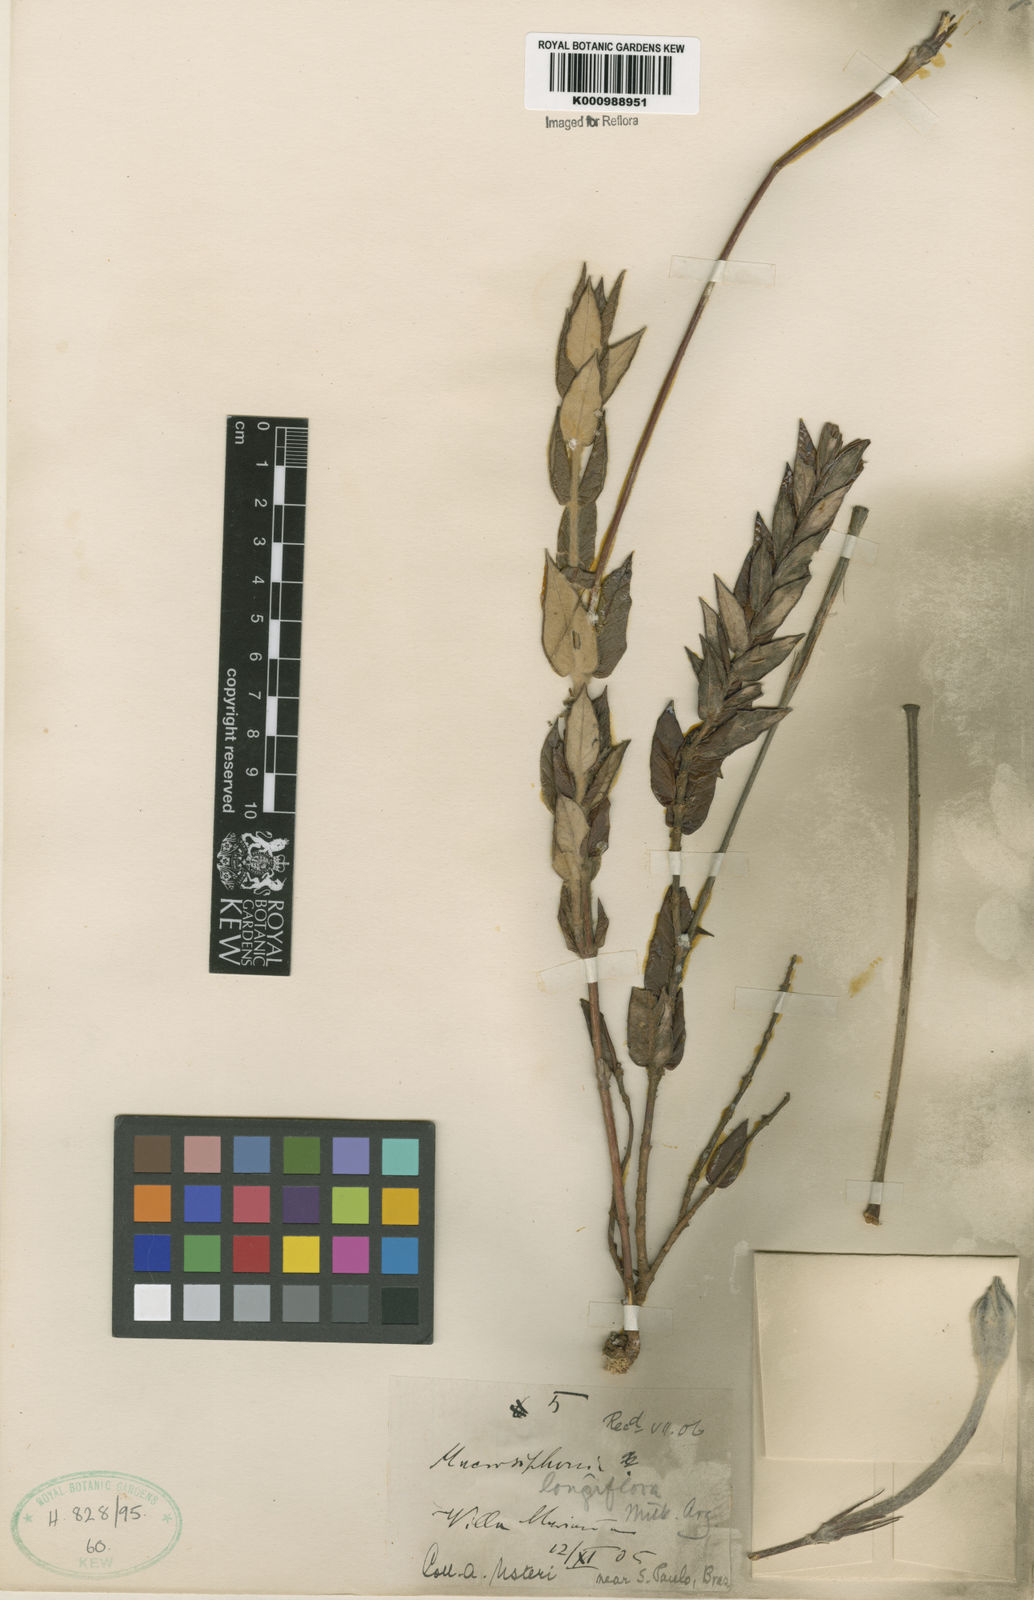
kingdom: Plantae
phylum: Tracheophyta
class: Magnoliopsida
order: Gentianales
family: Apocynaceae
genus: Mandevilla
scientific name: Mandevilla longiflora
